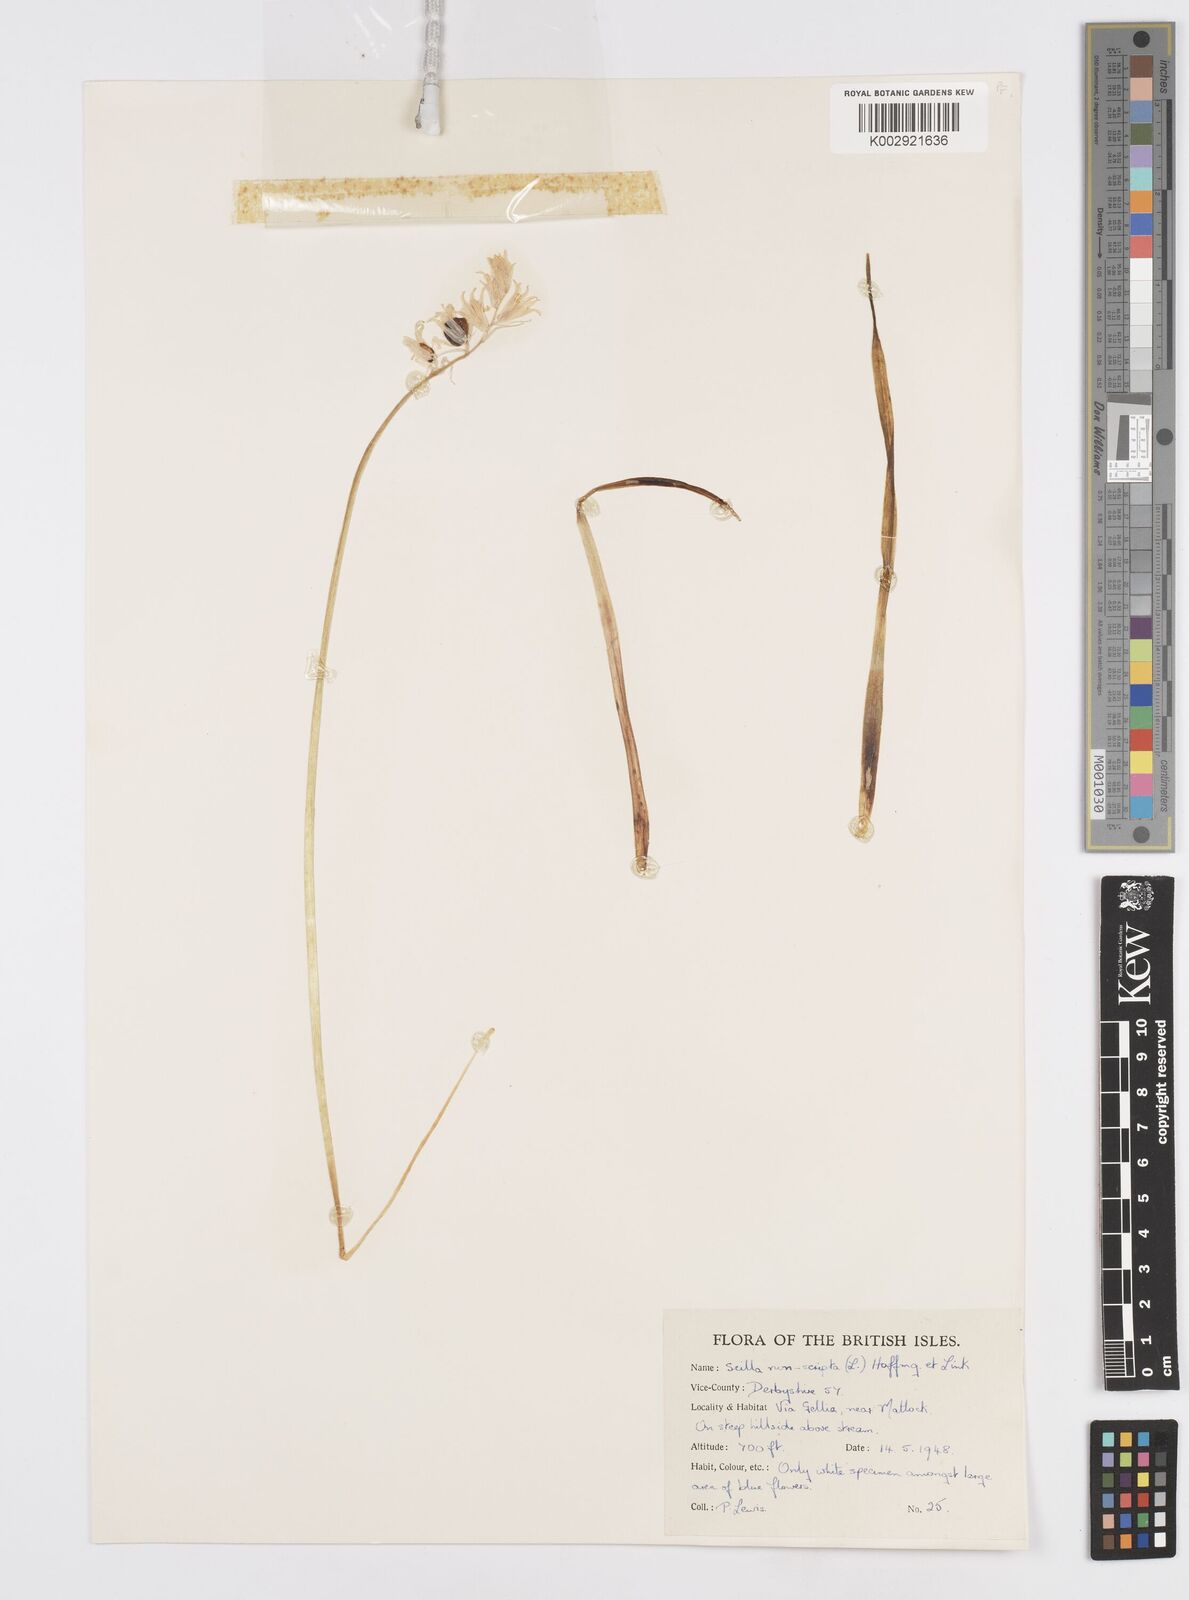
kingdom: Plantae
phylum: Tracheophyta
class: Liliopsida
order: Asparagales
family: Asparagaceae
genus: Hyacinthoides
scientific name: Hyacinthoides non-scripta
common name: Bluebell
